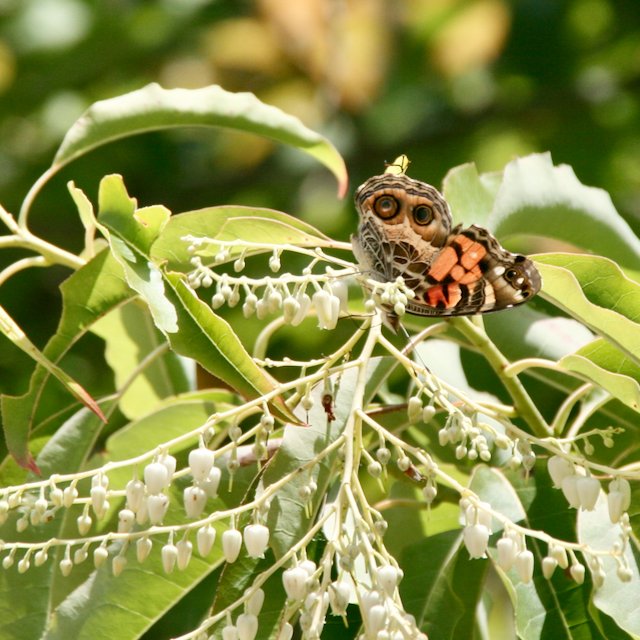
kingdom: Animalia
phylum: Arthropoda
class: Insecta
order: Lepidoptera
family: Nymphalidae
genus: Vanessa
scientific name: Vanessa virginiensis
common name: American Lady
